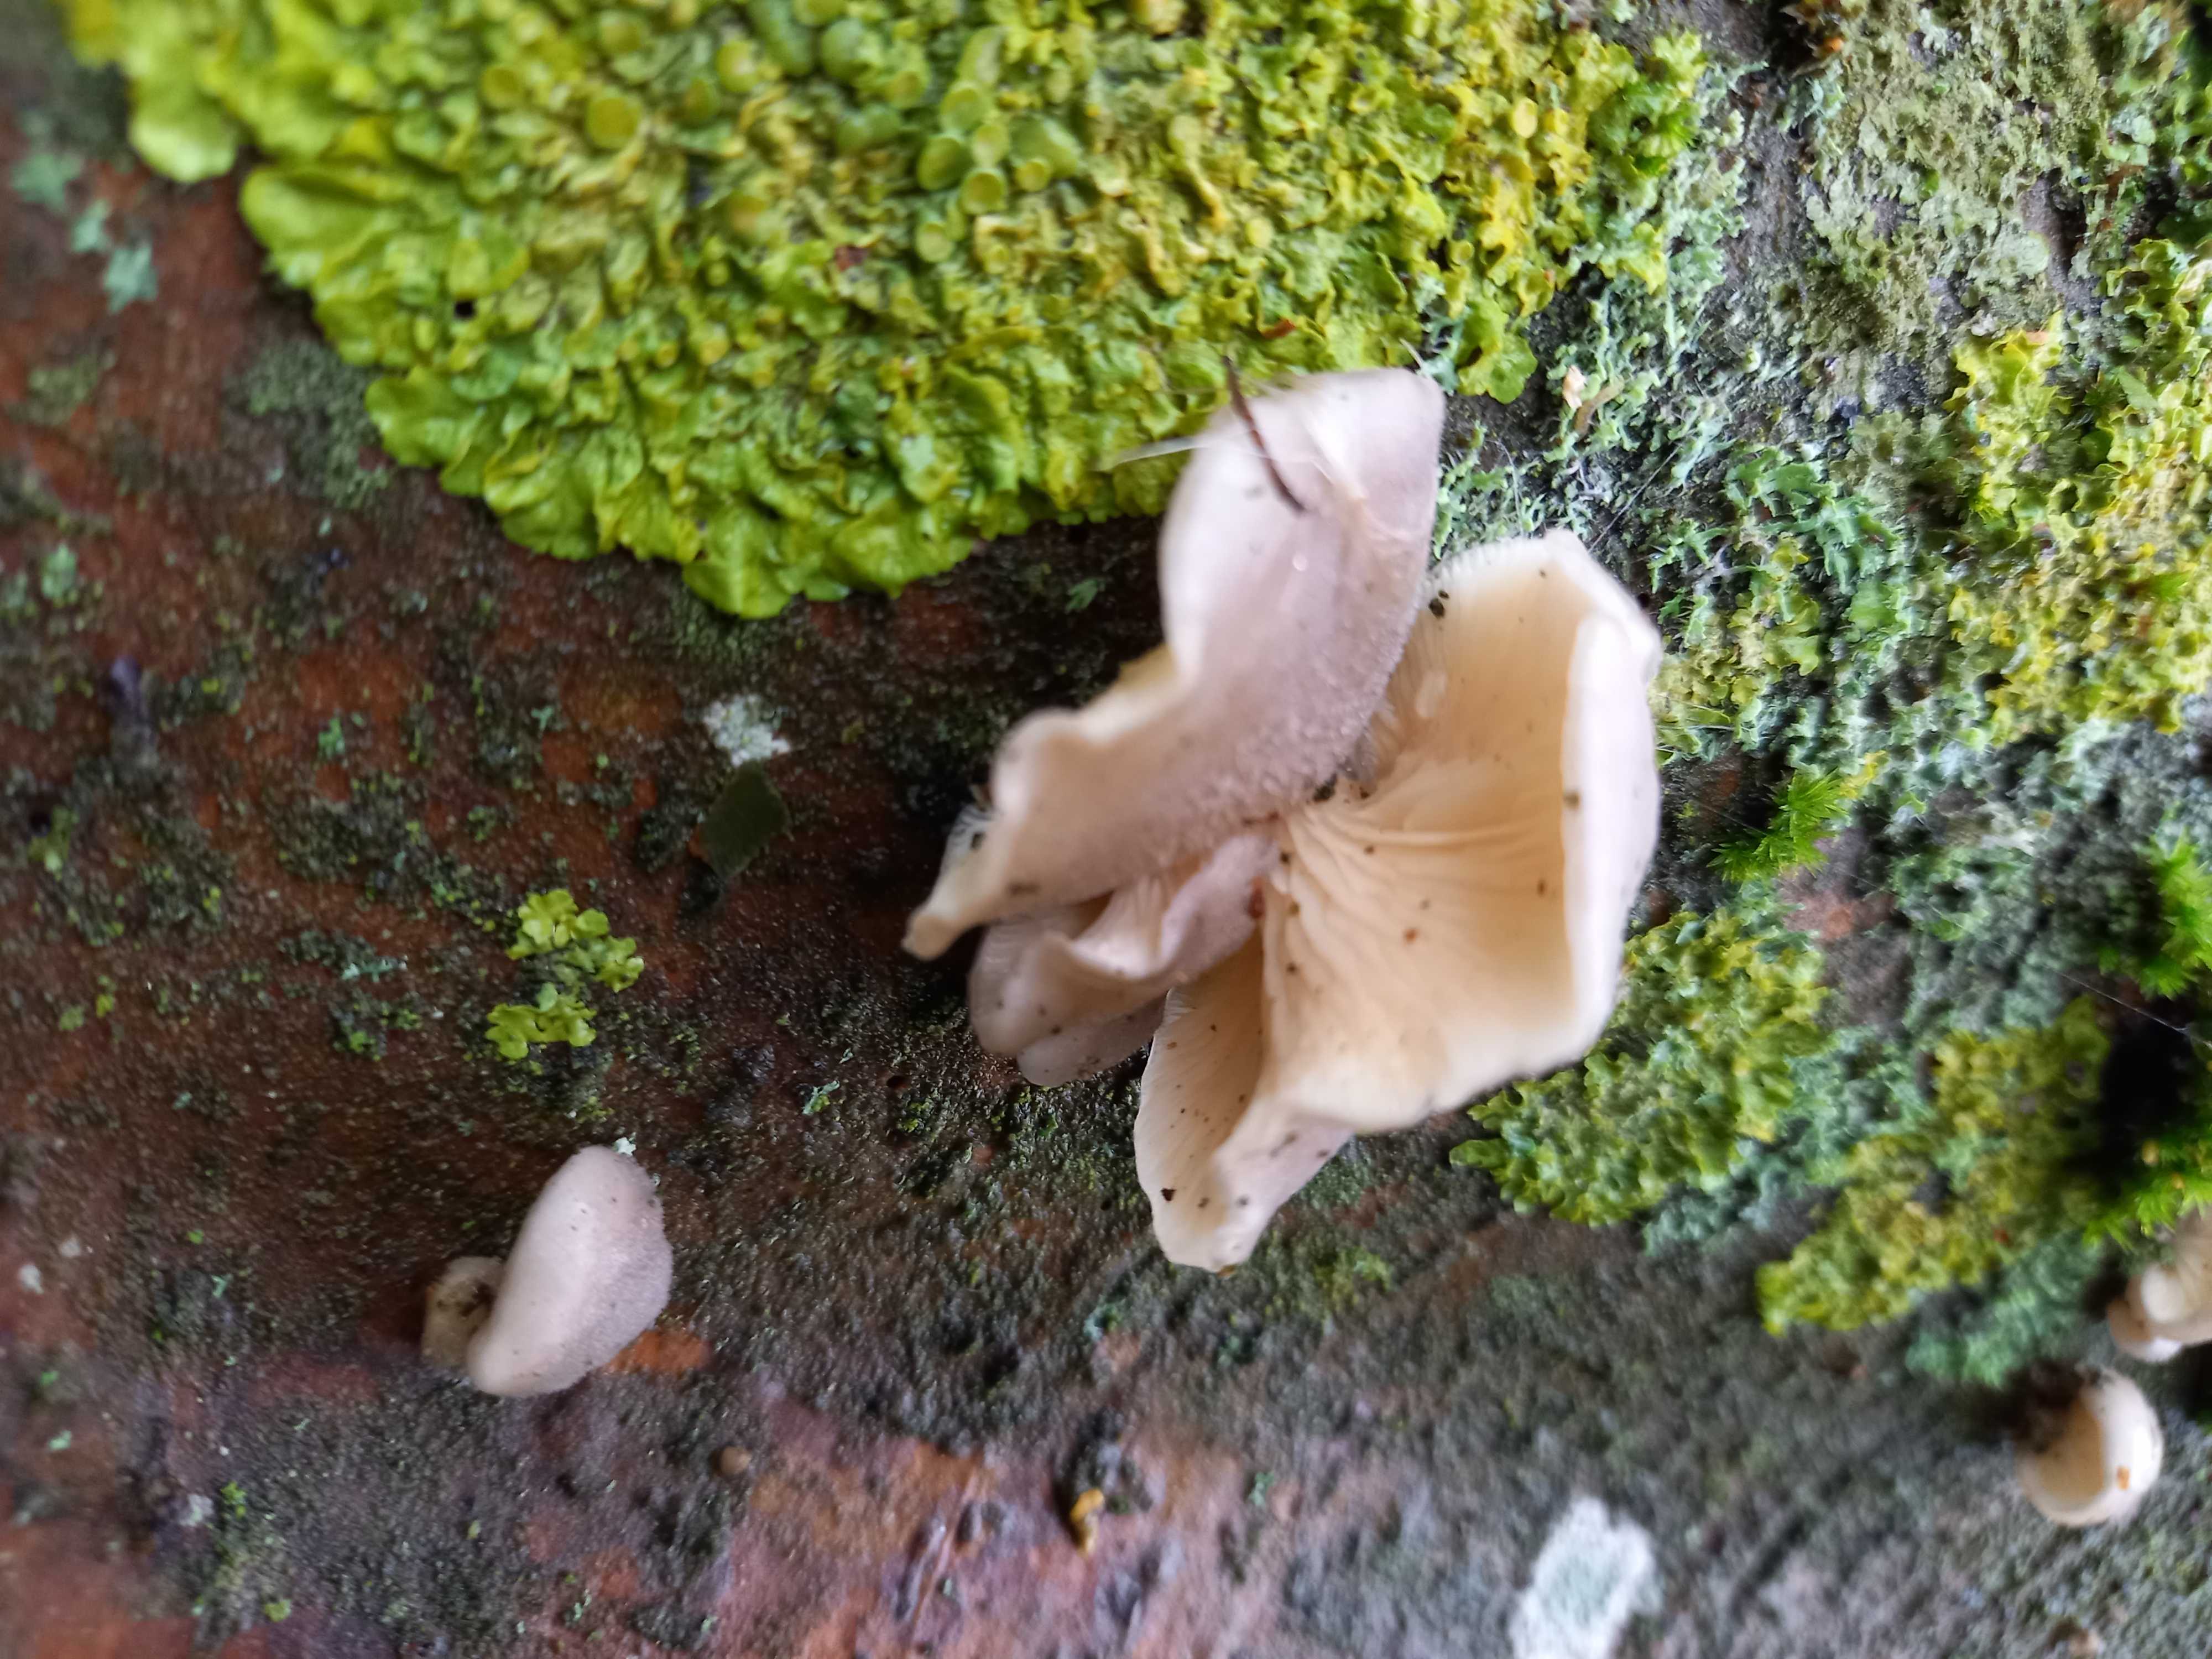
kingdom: Fungi
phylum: Basidiomycota
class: Agaricomycetes
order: Agaricales
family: Crepidotaceae
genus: Crepidotus
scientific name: Crepidotus mollis
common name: blød muslingesvamp
